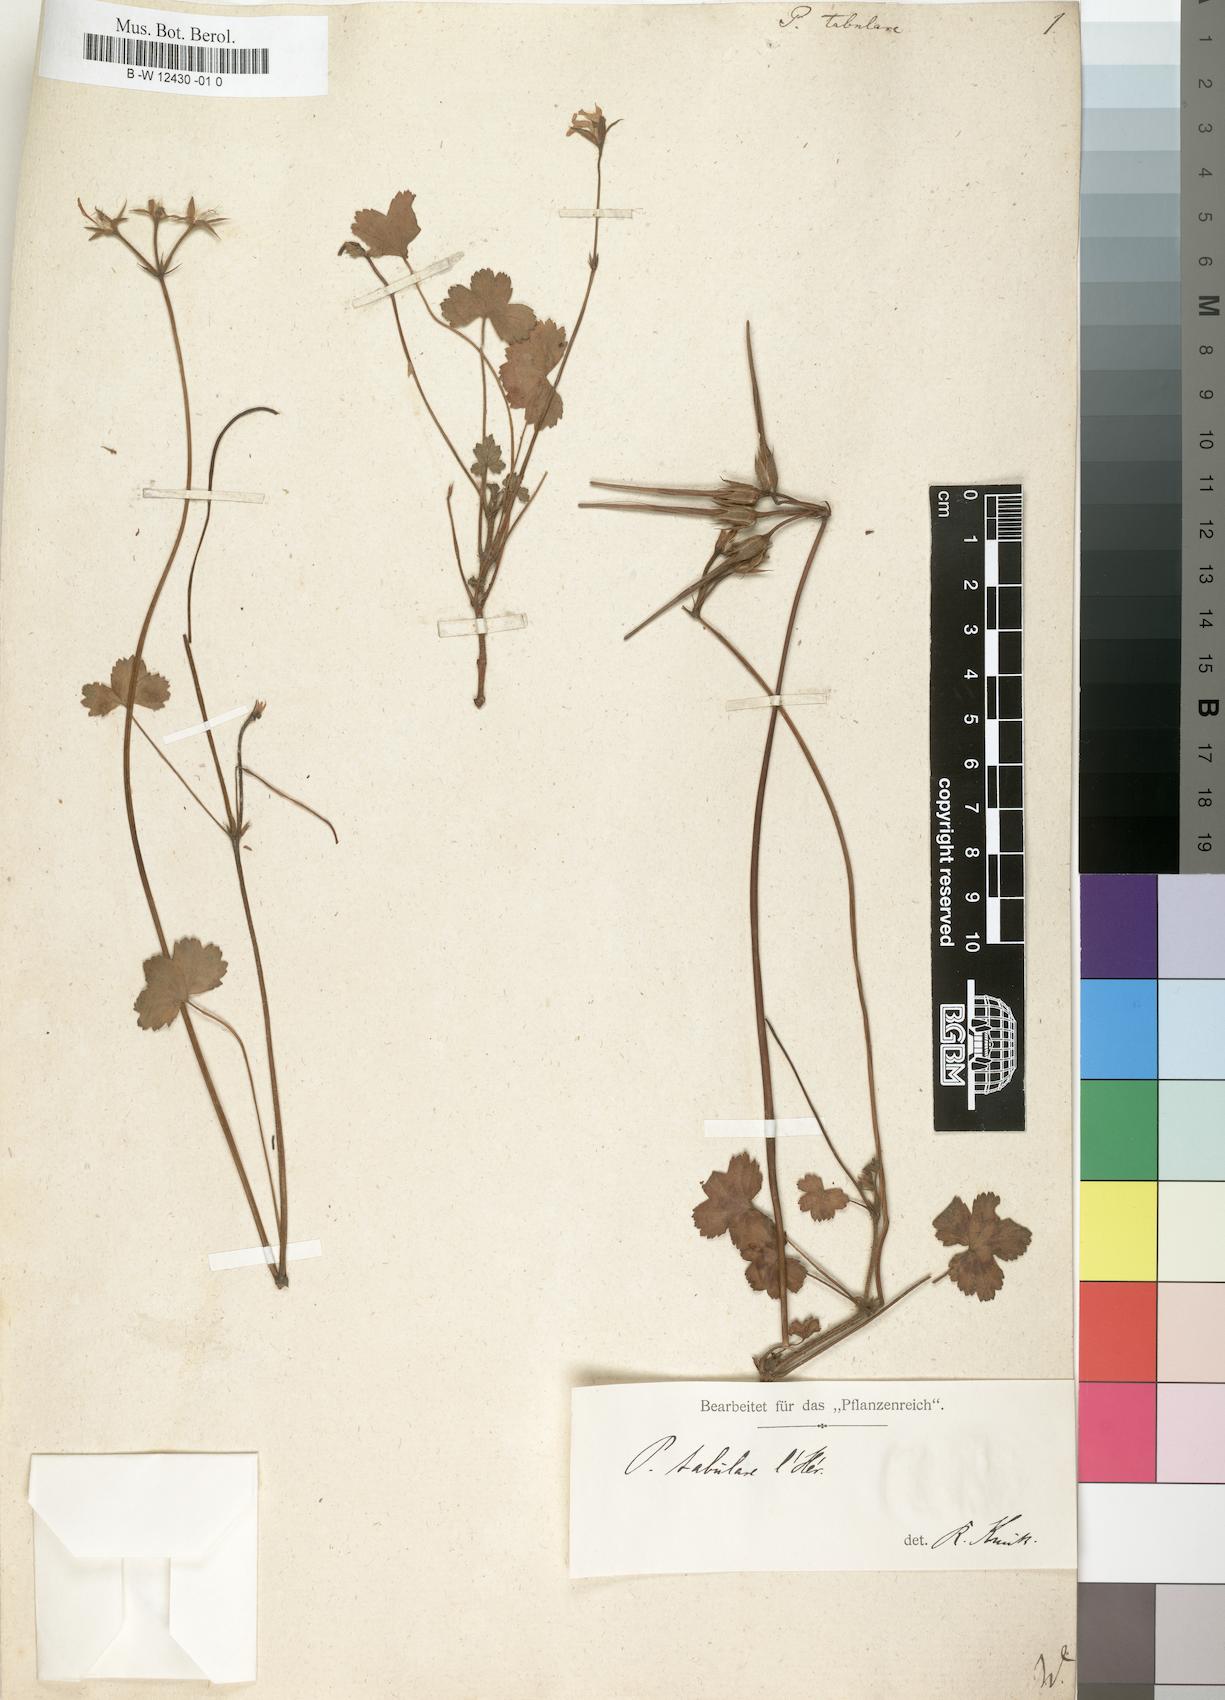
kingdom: Plantae
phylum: Tracheophyta
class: Magnoliopsida
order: Geraniales
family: Geraniaceae
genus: Pelargonium
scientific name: Pelargonium tabulare
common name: Table mountain pelargonium
